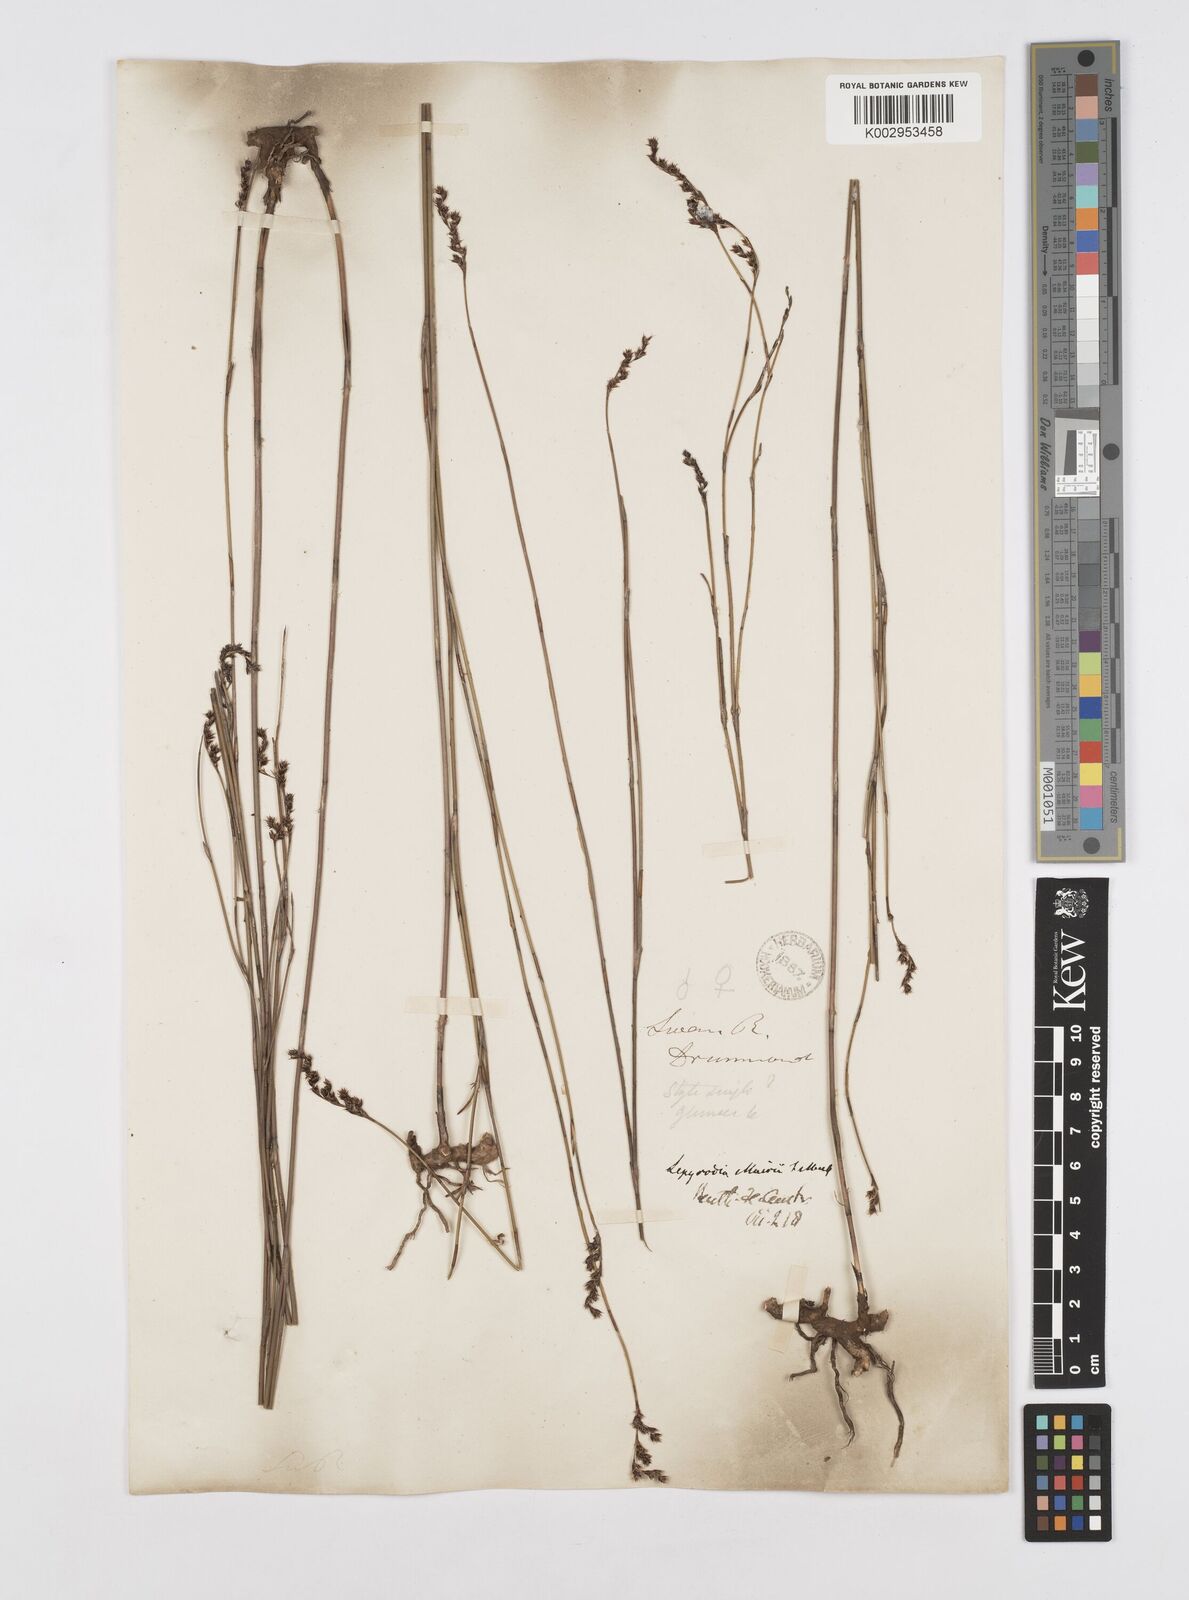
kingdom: Plantae
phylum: Tracheophyta
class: Liliopsida
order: Poales
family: Restionaceae
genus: Lepyrodia
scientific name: Lepyrodia muirii
